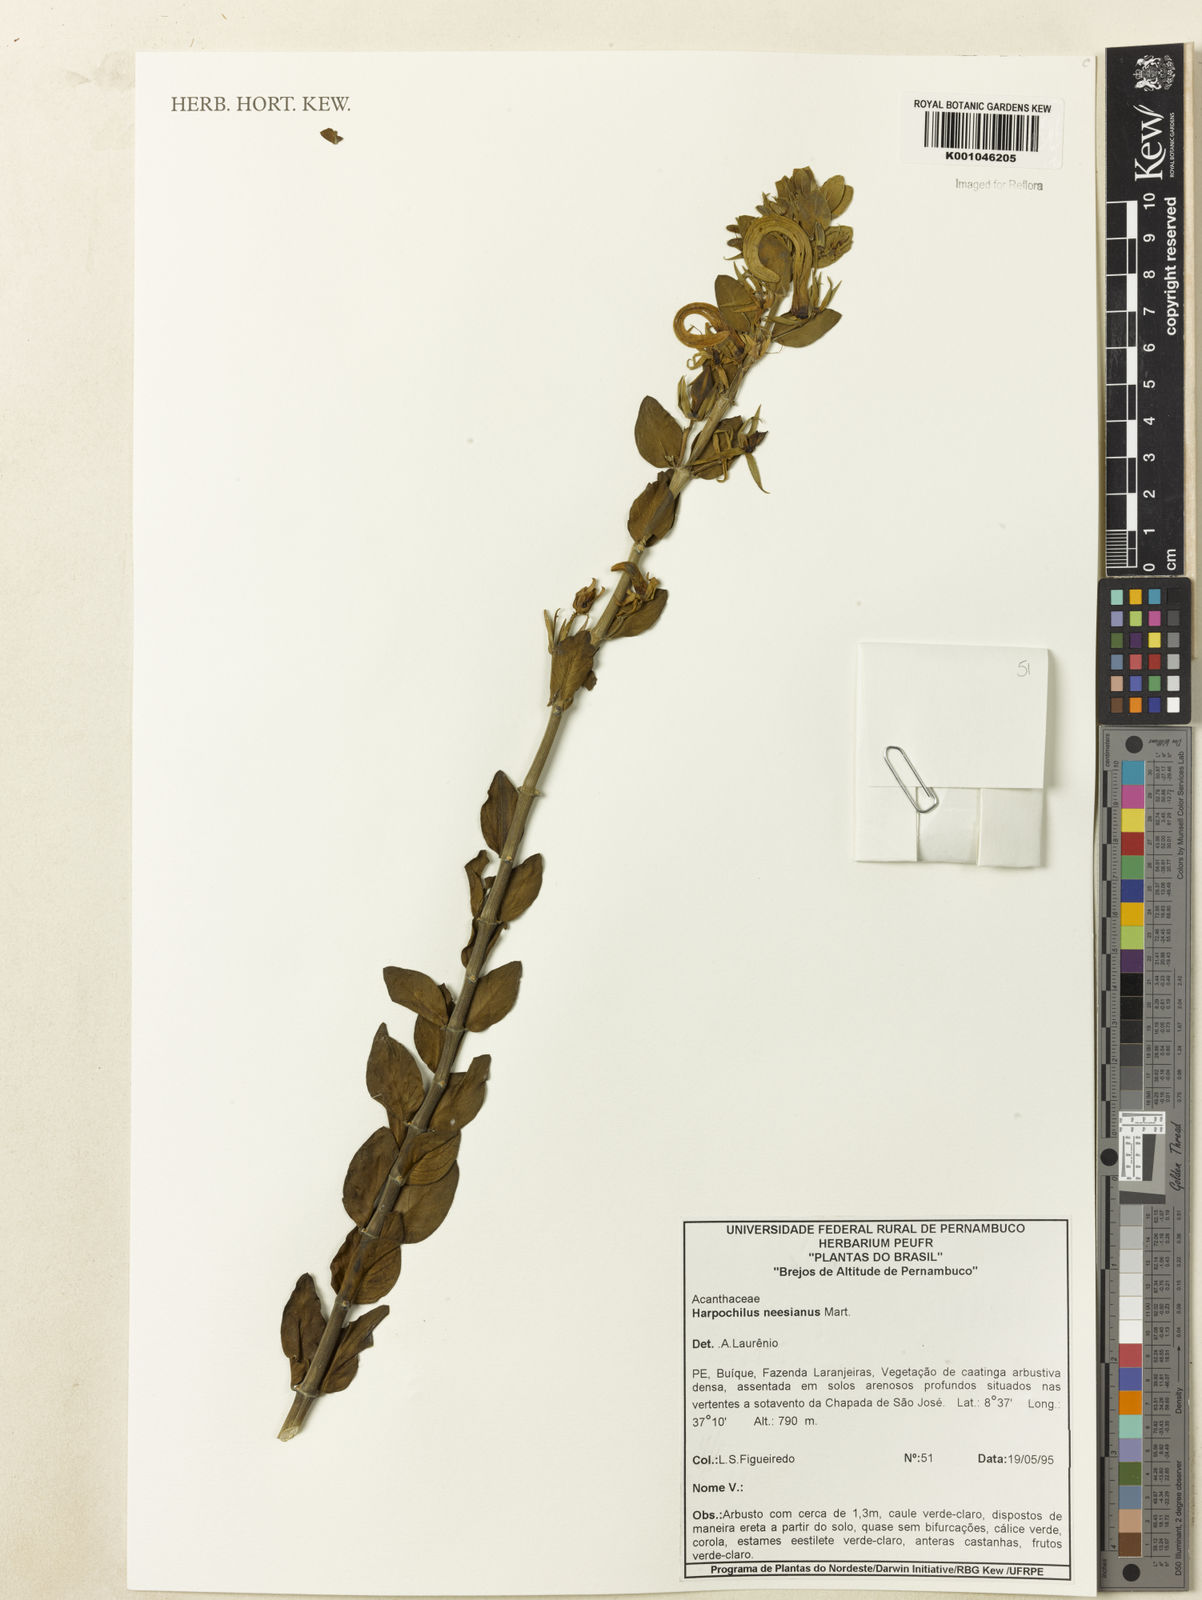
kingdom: Plantae
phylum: Tracheophyta
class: Magnoliopsida
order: Lamiales
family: Acanthaceae
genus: Harpochilus
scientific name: Harpochilus neesianus
